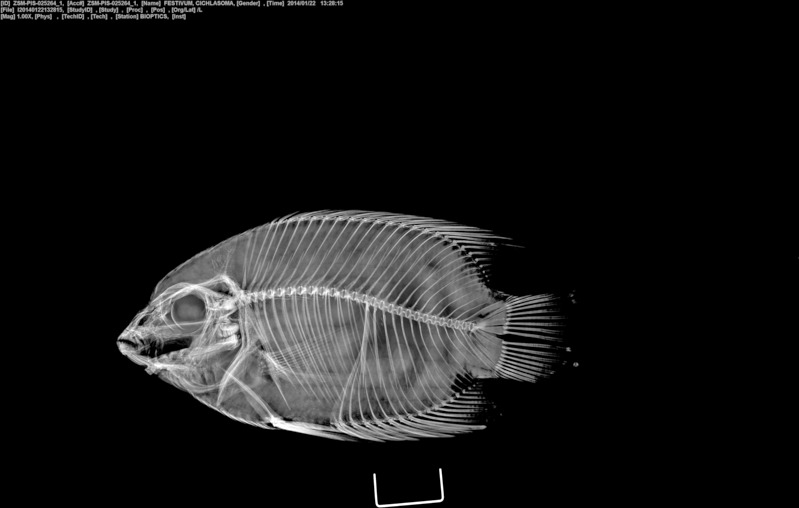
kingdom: Animalia
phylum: Chordata
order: Perciformes
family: Cichlidae
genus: Mesonauta
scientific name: Mesonauta insignis
